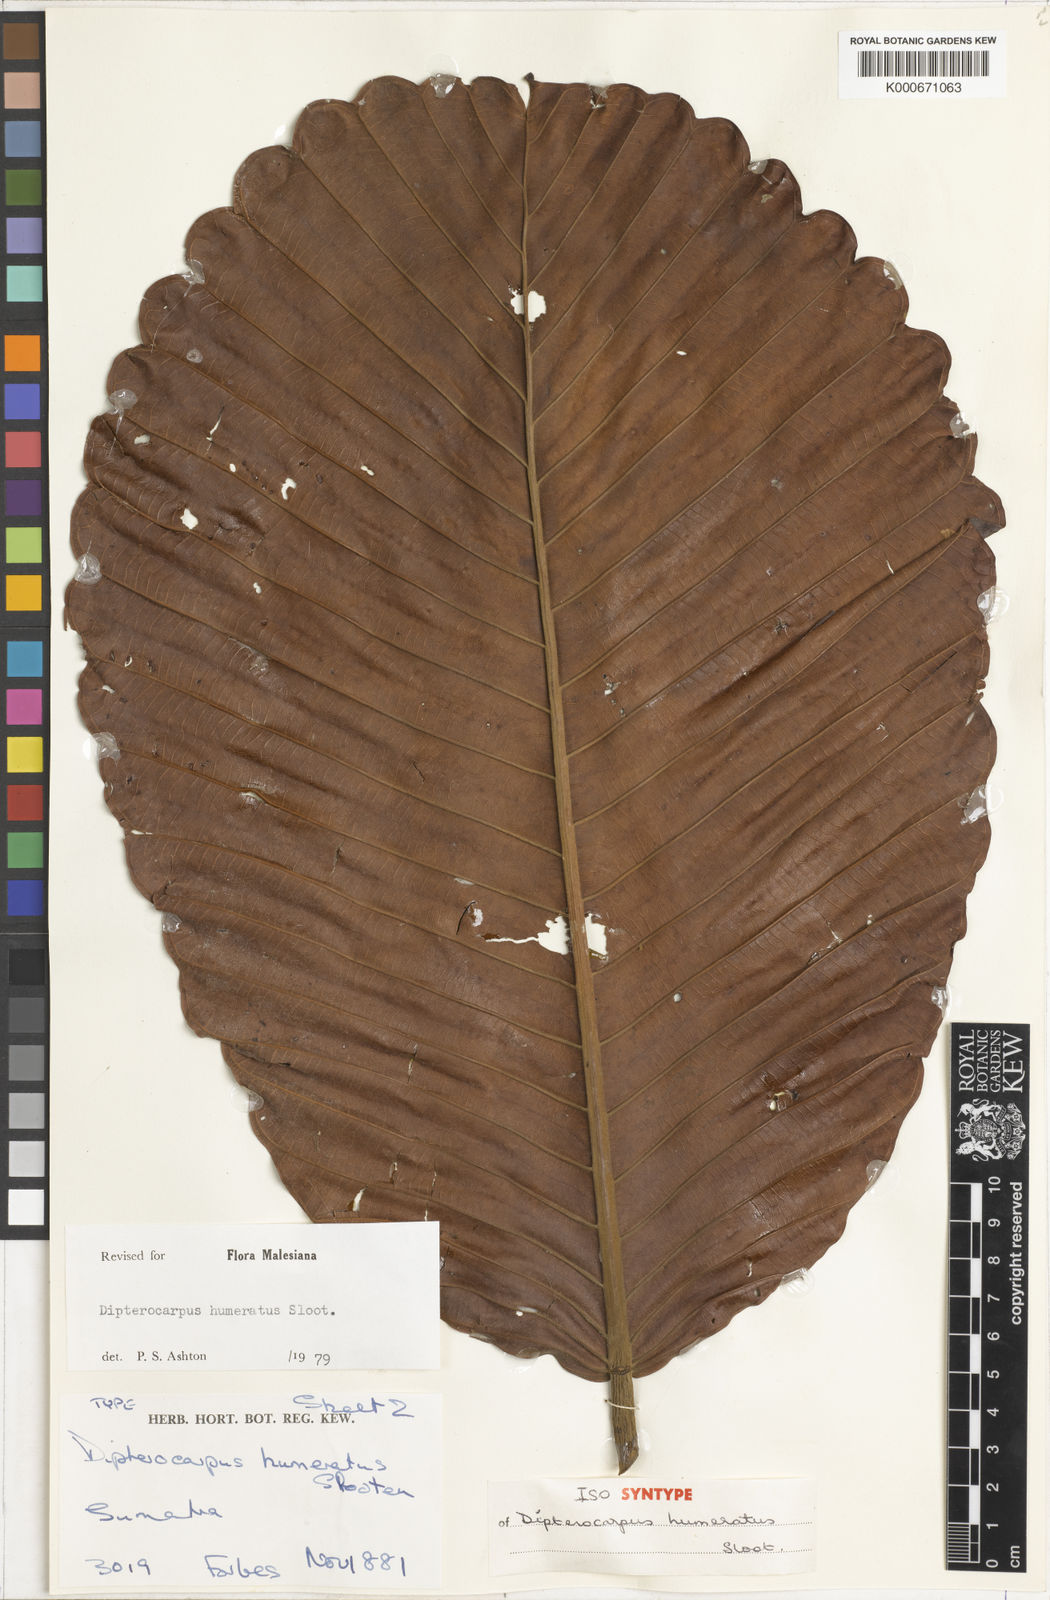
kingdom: Plantae
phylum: Tracheophyta
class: Magnoliopsida
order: Malvales
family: Dipterocarpaceae
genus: Dipterocarpus
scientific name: Dipterocarpus humeratus
